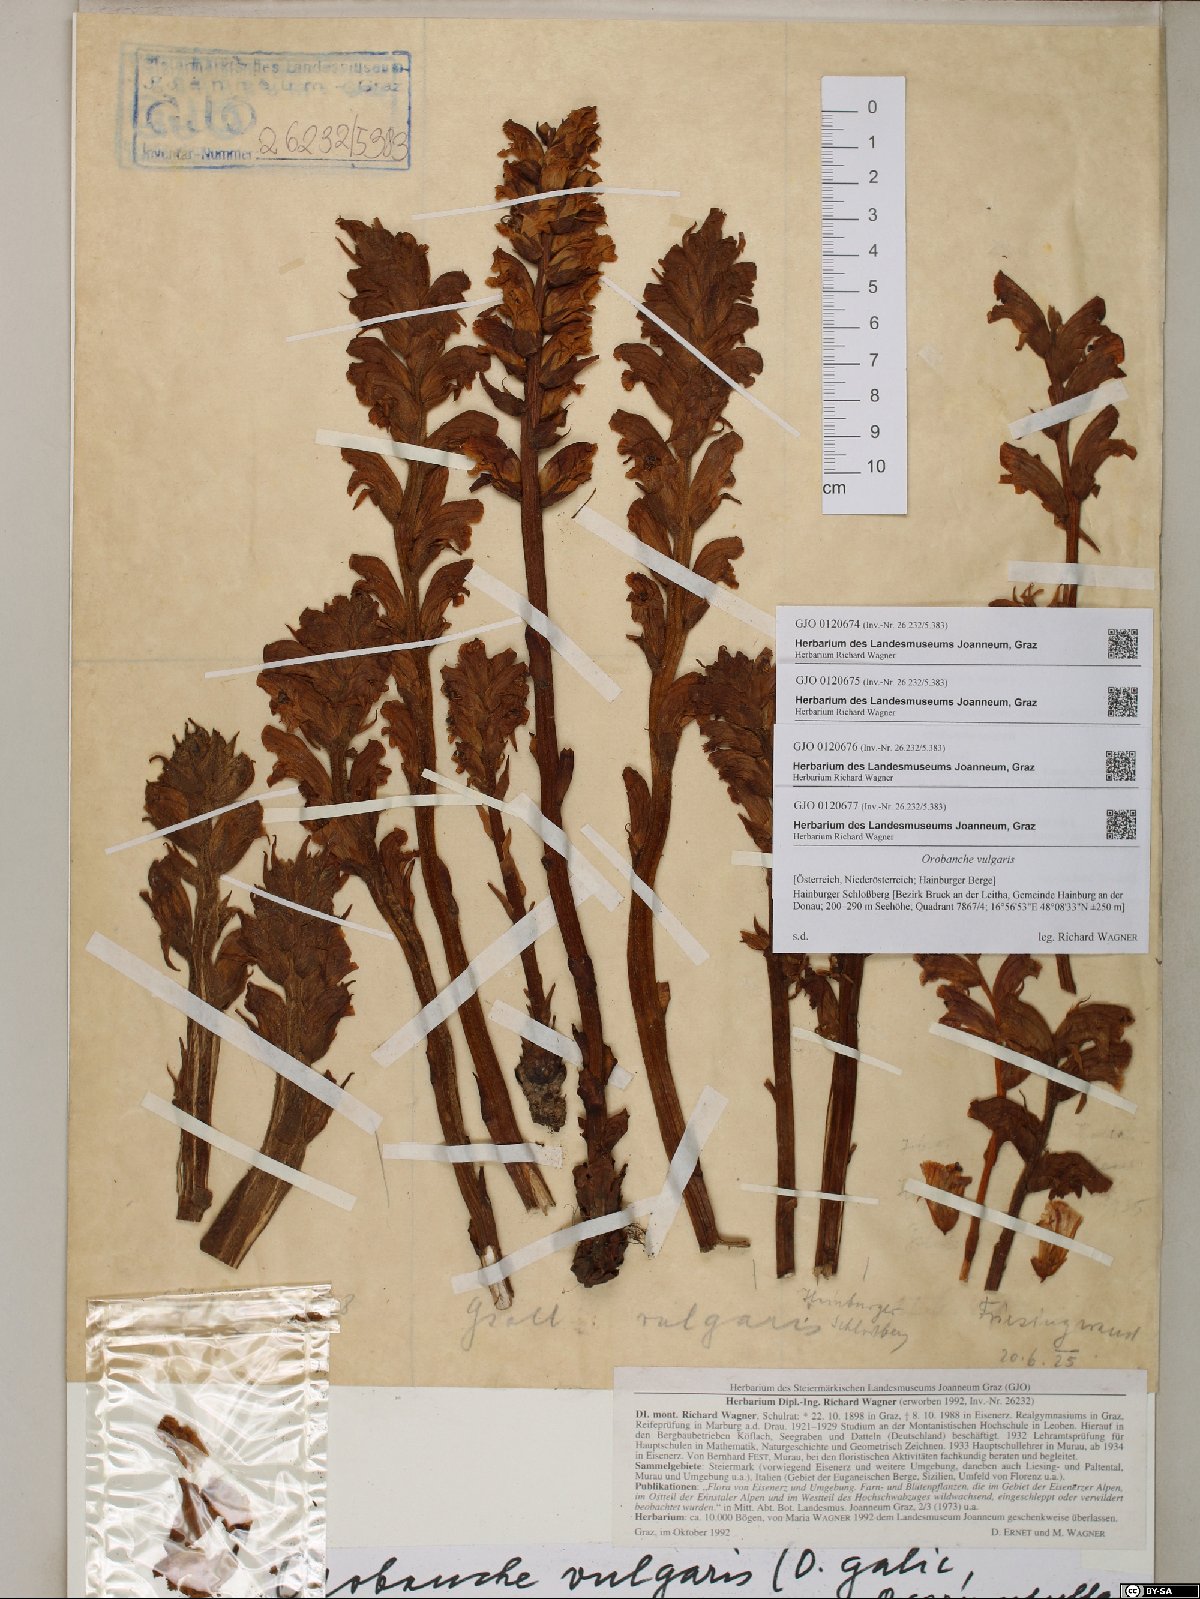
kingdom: Plantae
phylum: Tracheophyta
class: Magnoliopsida
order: Lamiales
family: Orobanchaceae
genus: Orobanche
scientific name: Orobanche caryophyllacea
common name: Bedstraw broomrape
